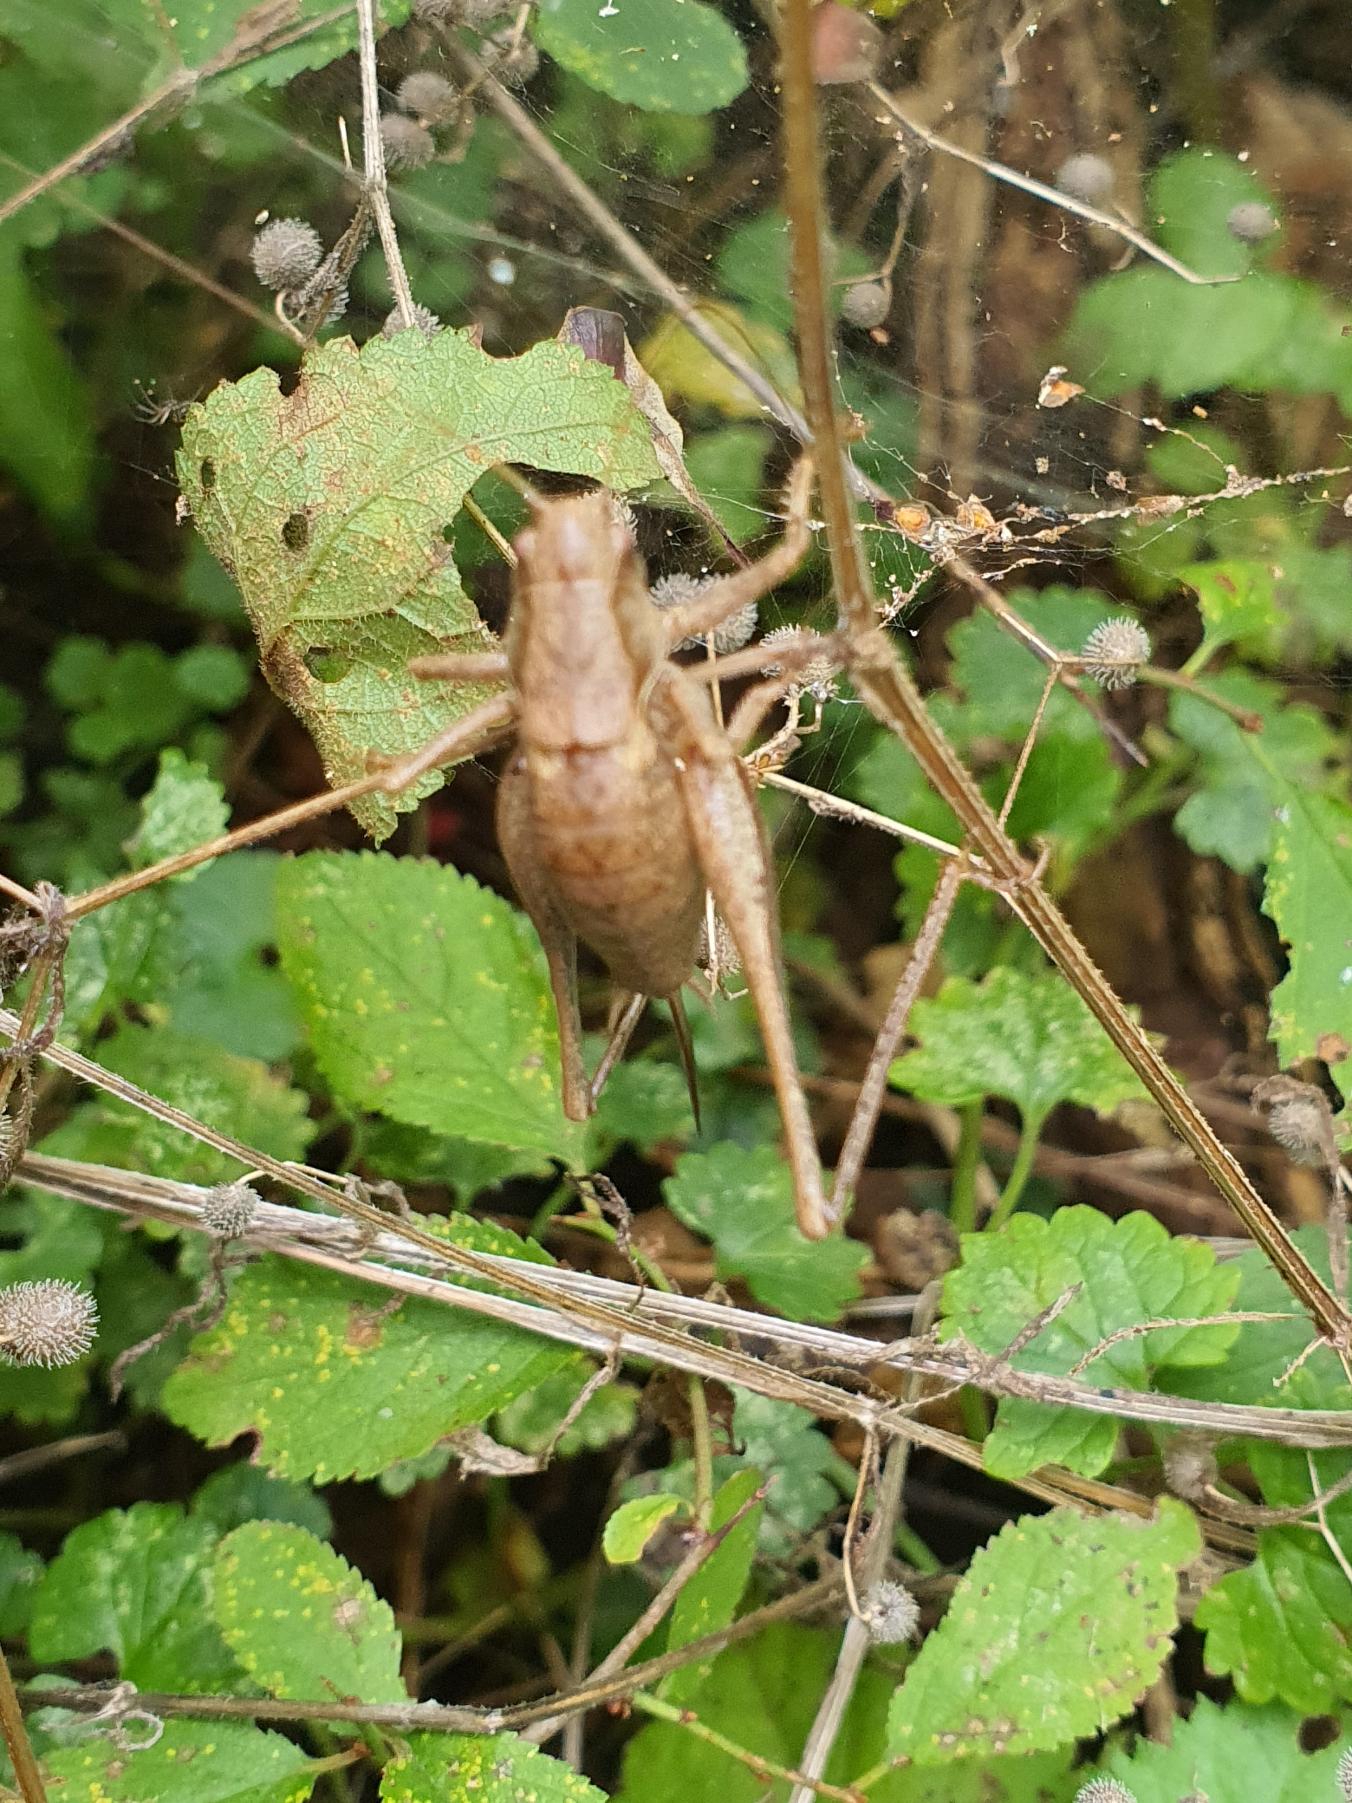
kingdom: Animalia
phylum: Arthropoda
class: Insecta
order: Orthoptera
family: Tettigoniidae
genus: Pholidoptera
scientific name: Pholidoptera griseoaptera
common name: Buskgræshoppe
